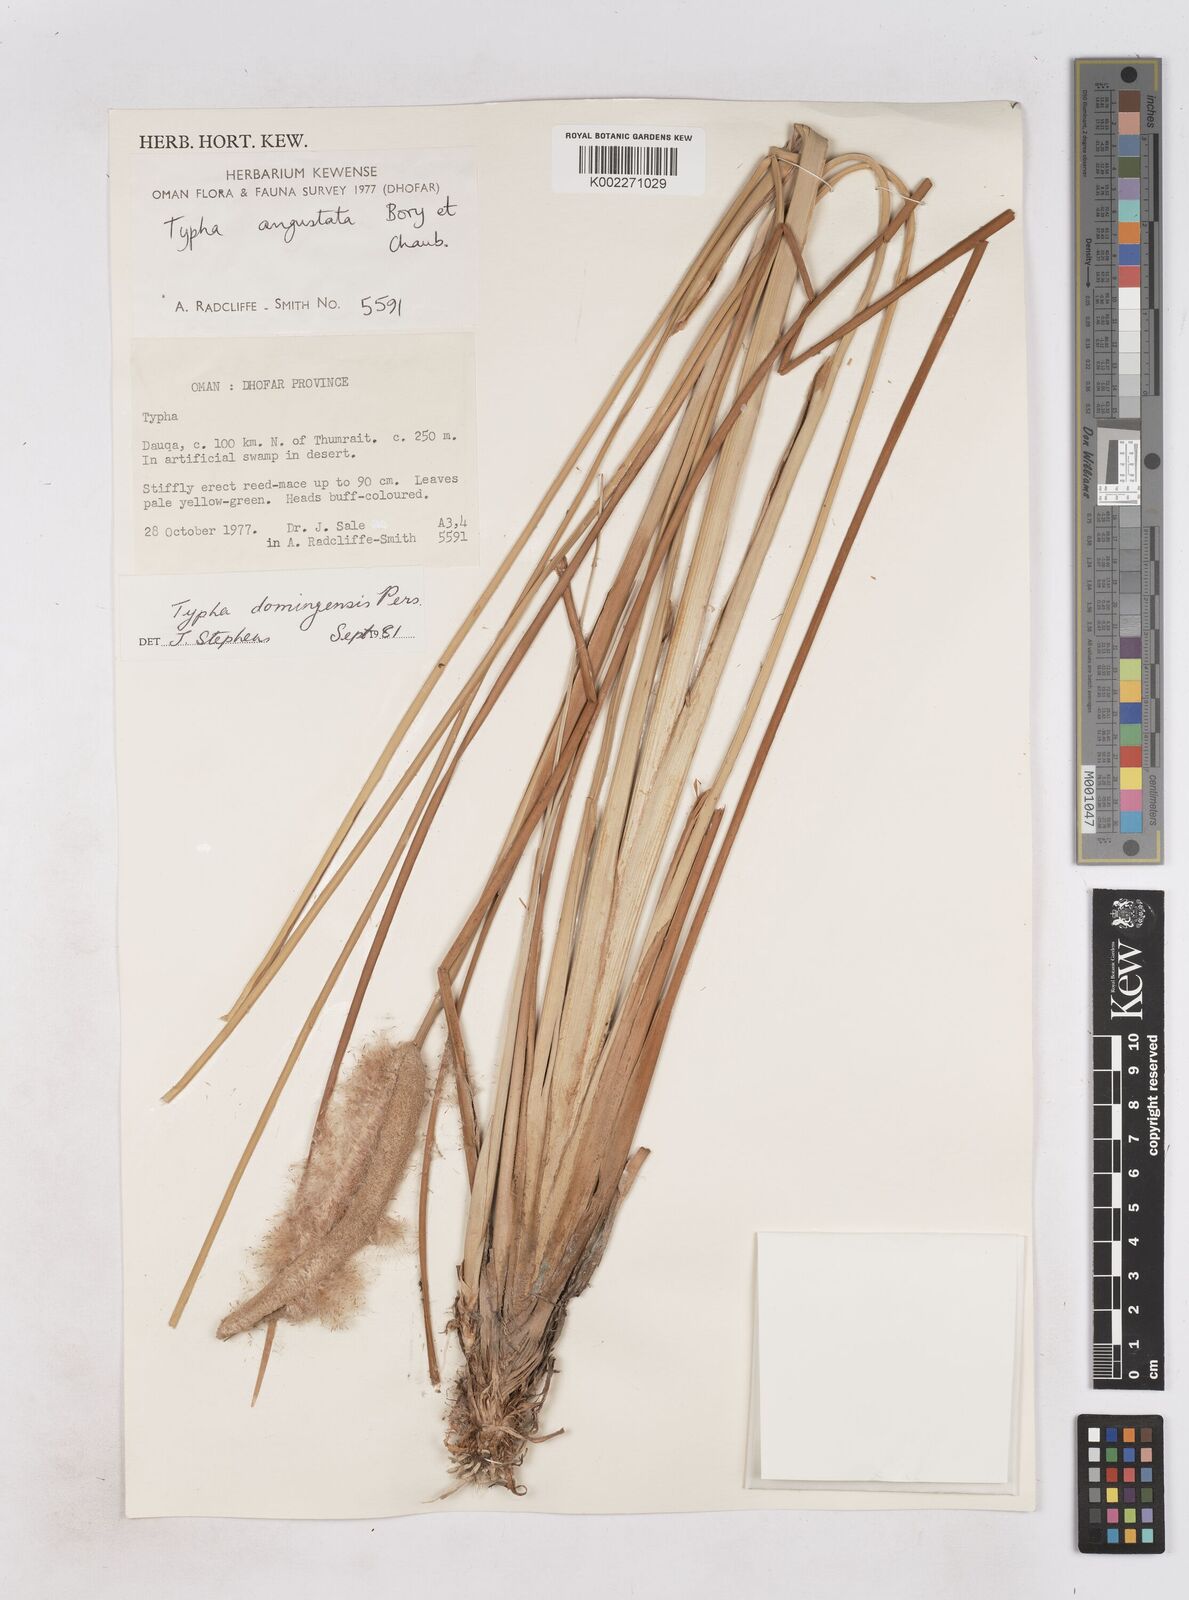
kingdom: Plantae
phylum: Tracheophyta
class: Liliopsida
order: Poales
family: Typhaceae
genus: Typha
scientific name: Typha domingensis
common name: Southern cattail
